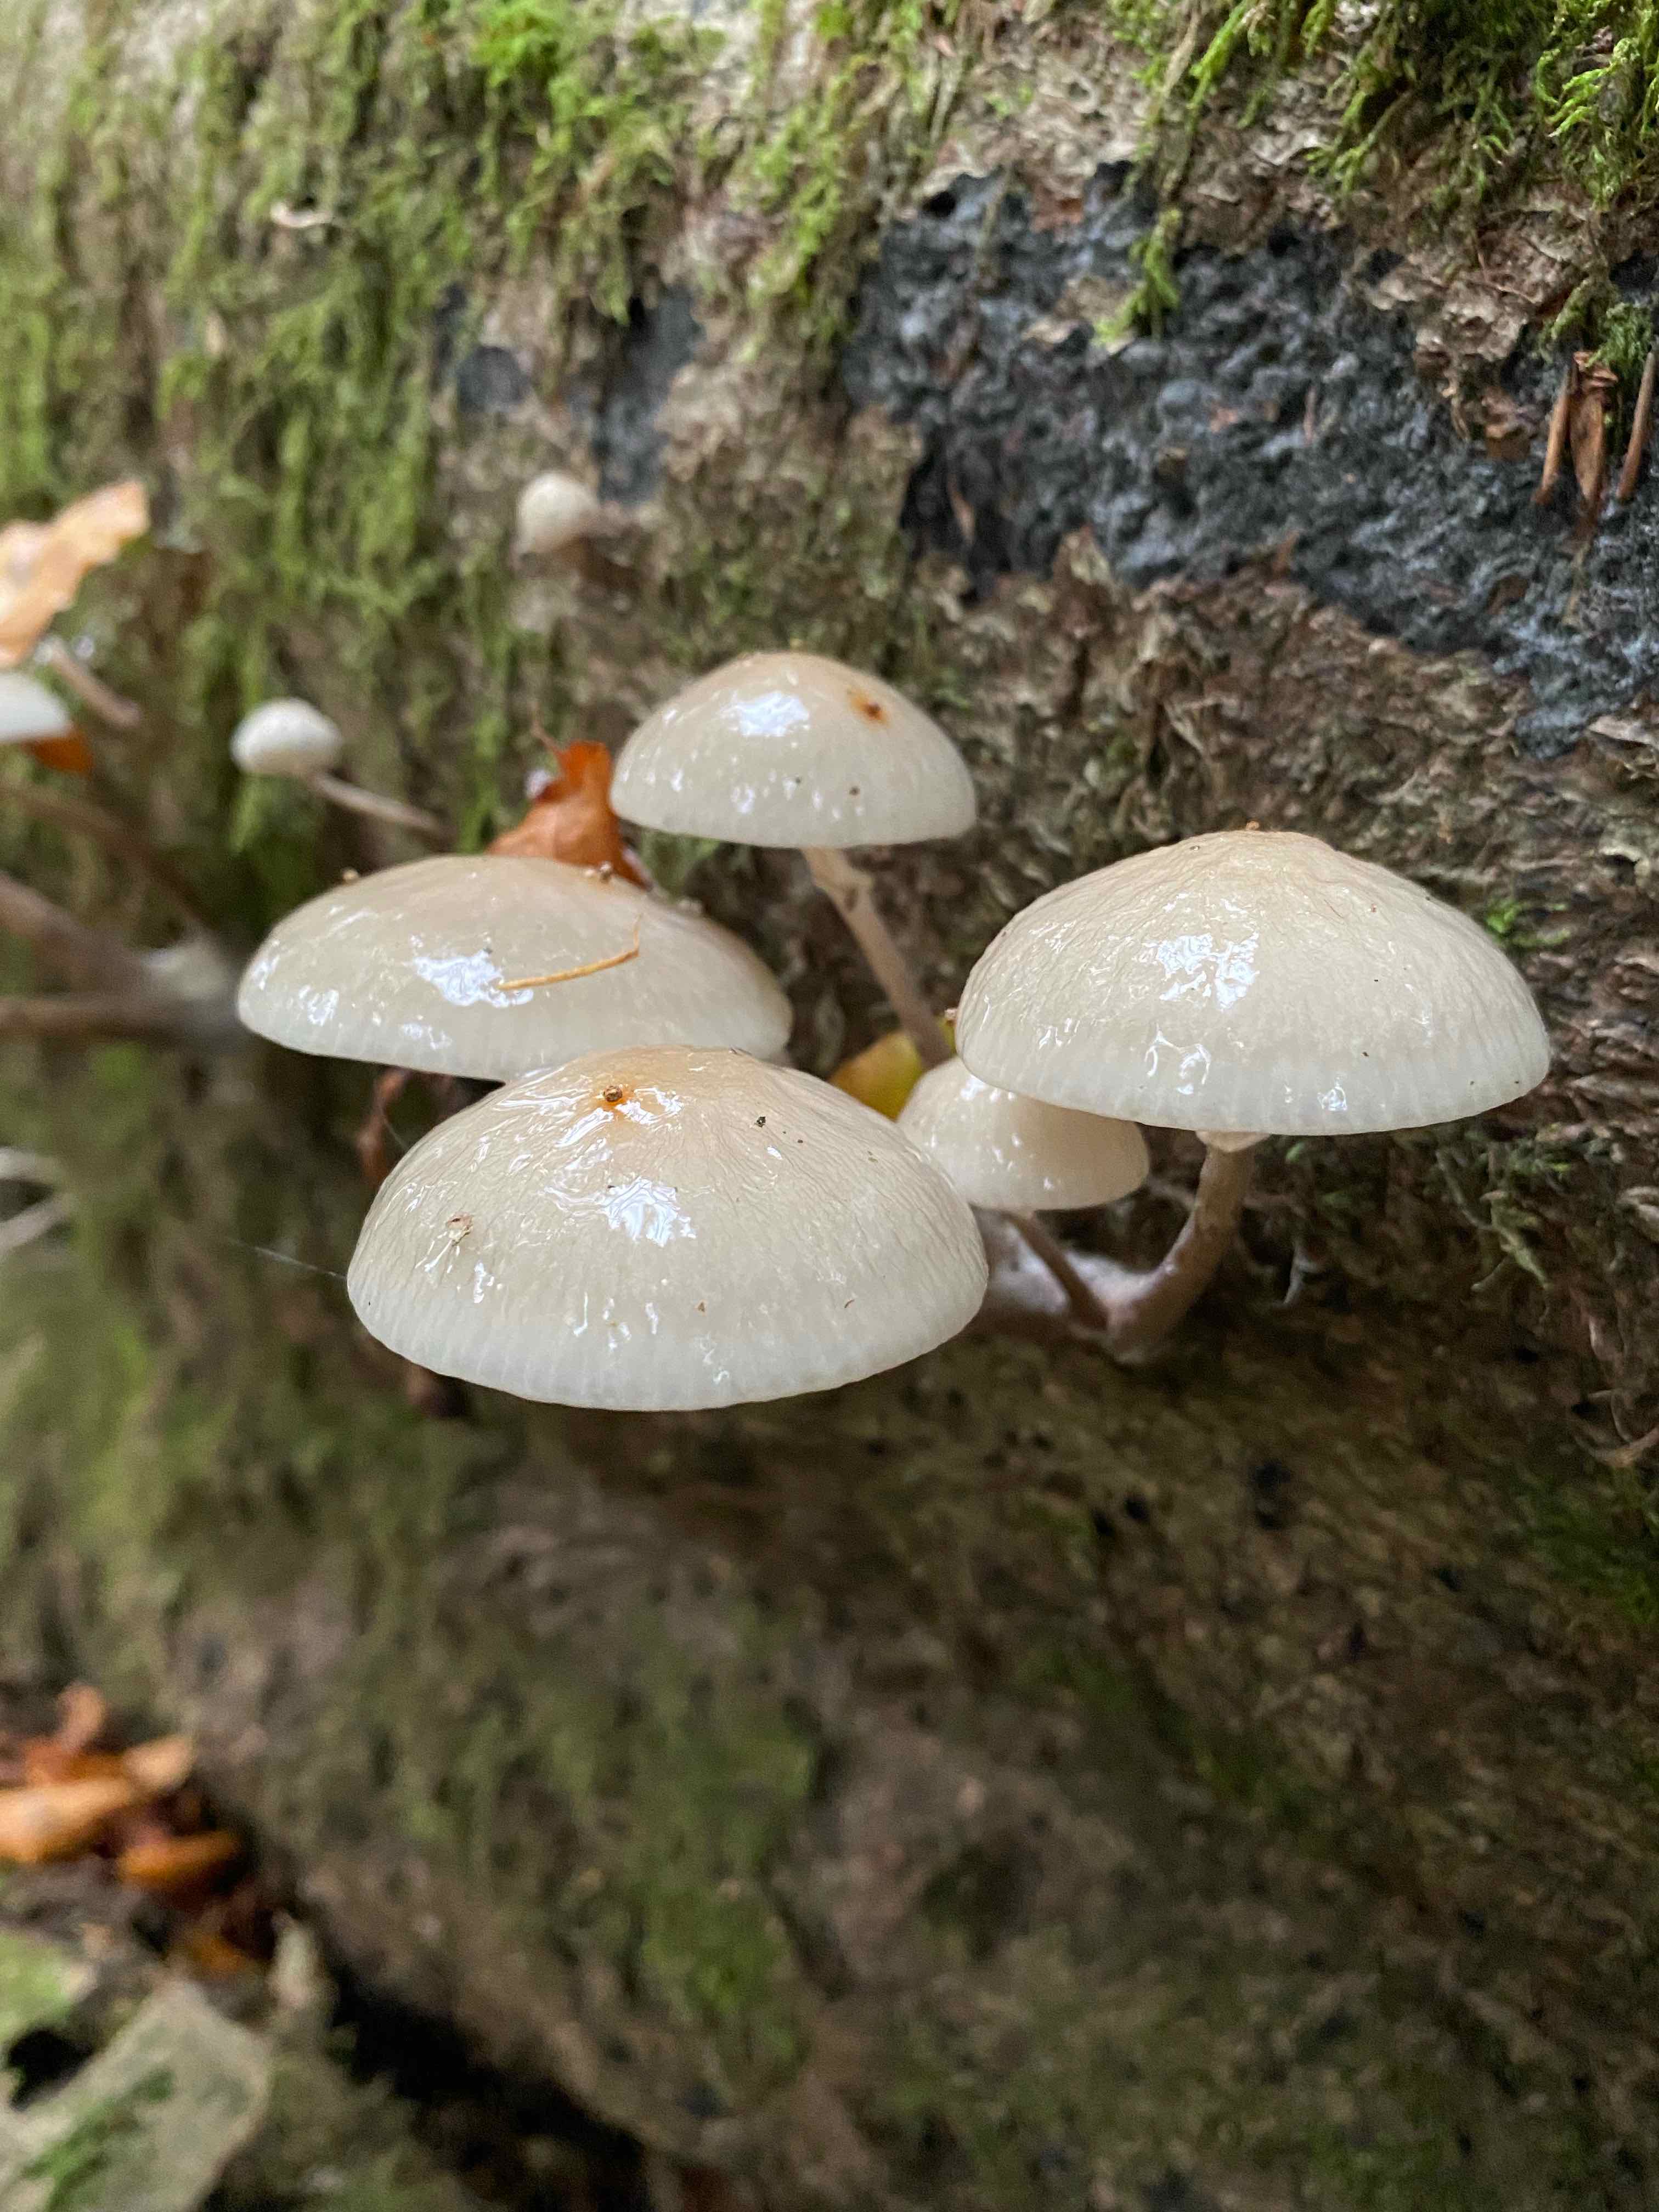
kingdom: Fungi
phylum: Basidiomycota
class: Agaricomycetes
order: Agaricales
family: Physalacriaceae
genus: Mucidula
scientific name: Mucidula mucida
